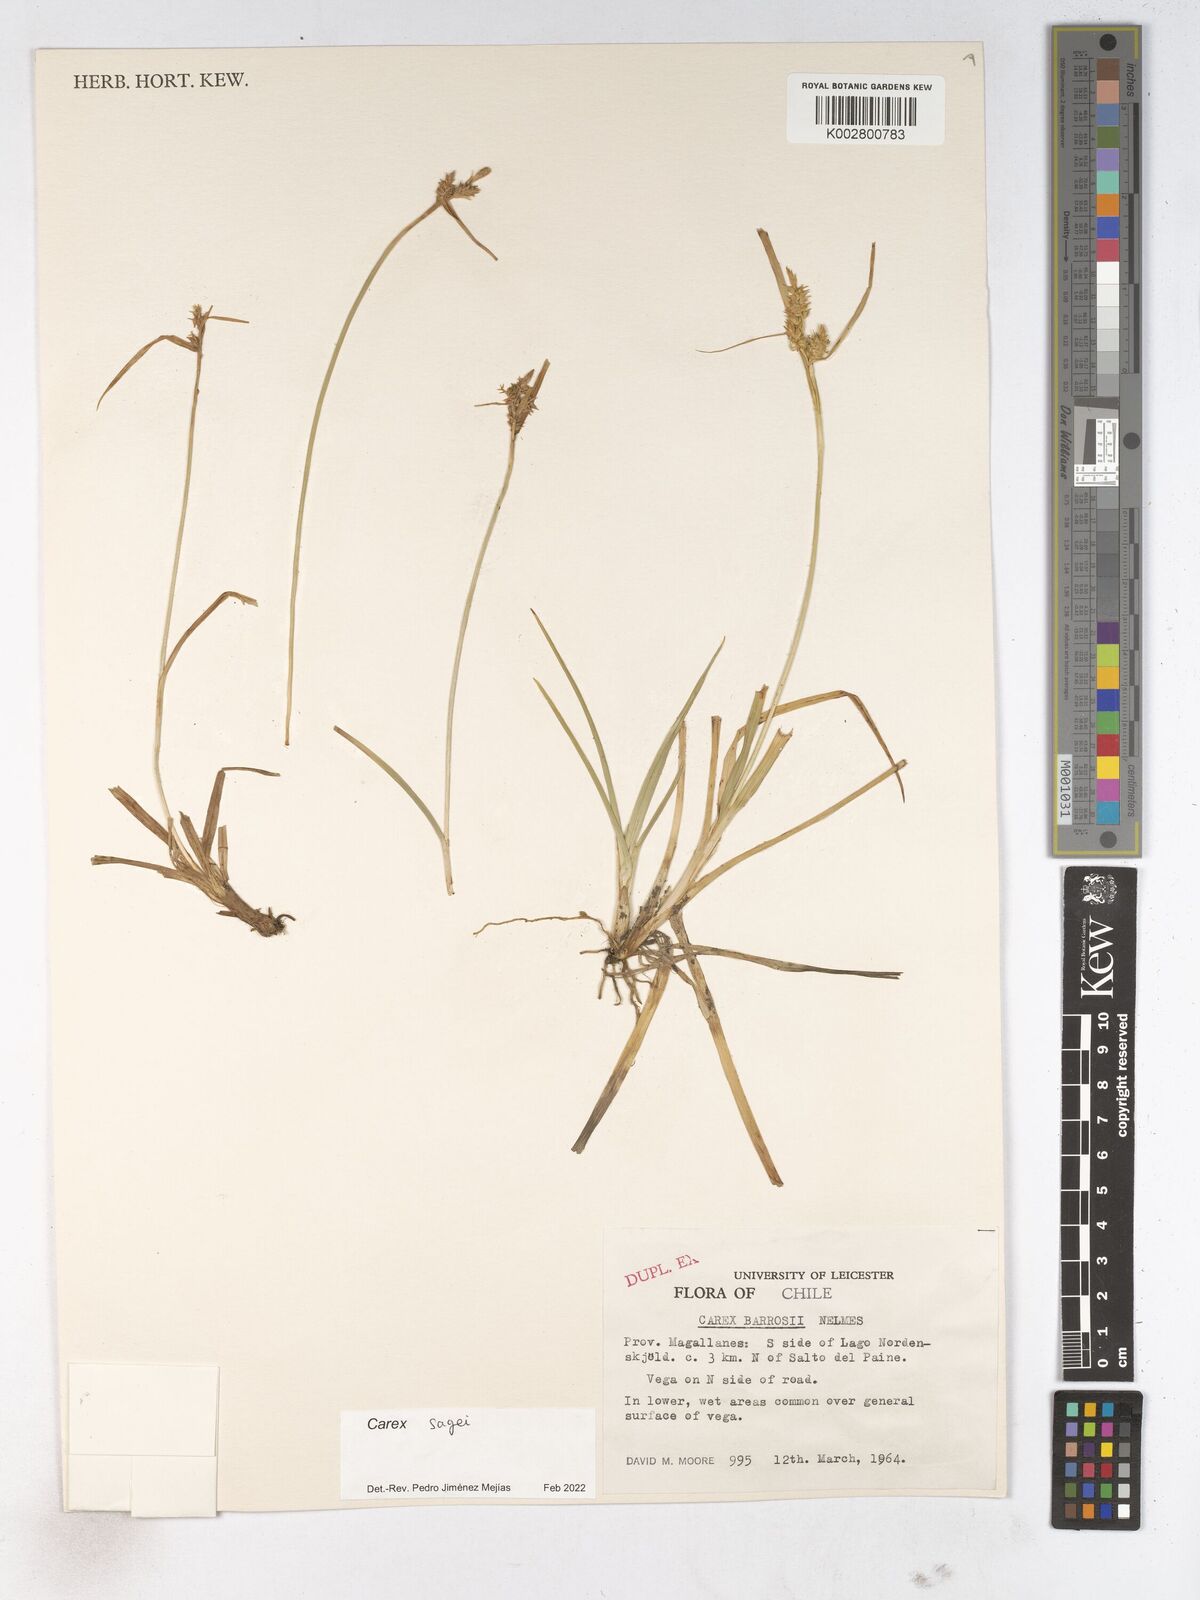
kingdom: Plantae
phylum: Tracheophyta
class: Liliopsida
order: Poales
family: Cyperaceae
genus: Carex
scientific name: Carex sagei
